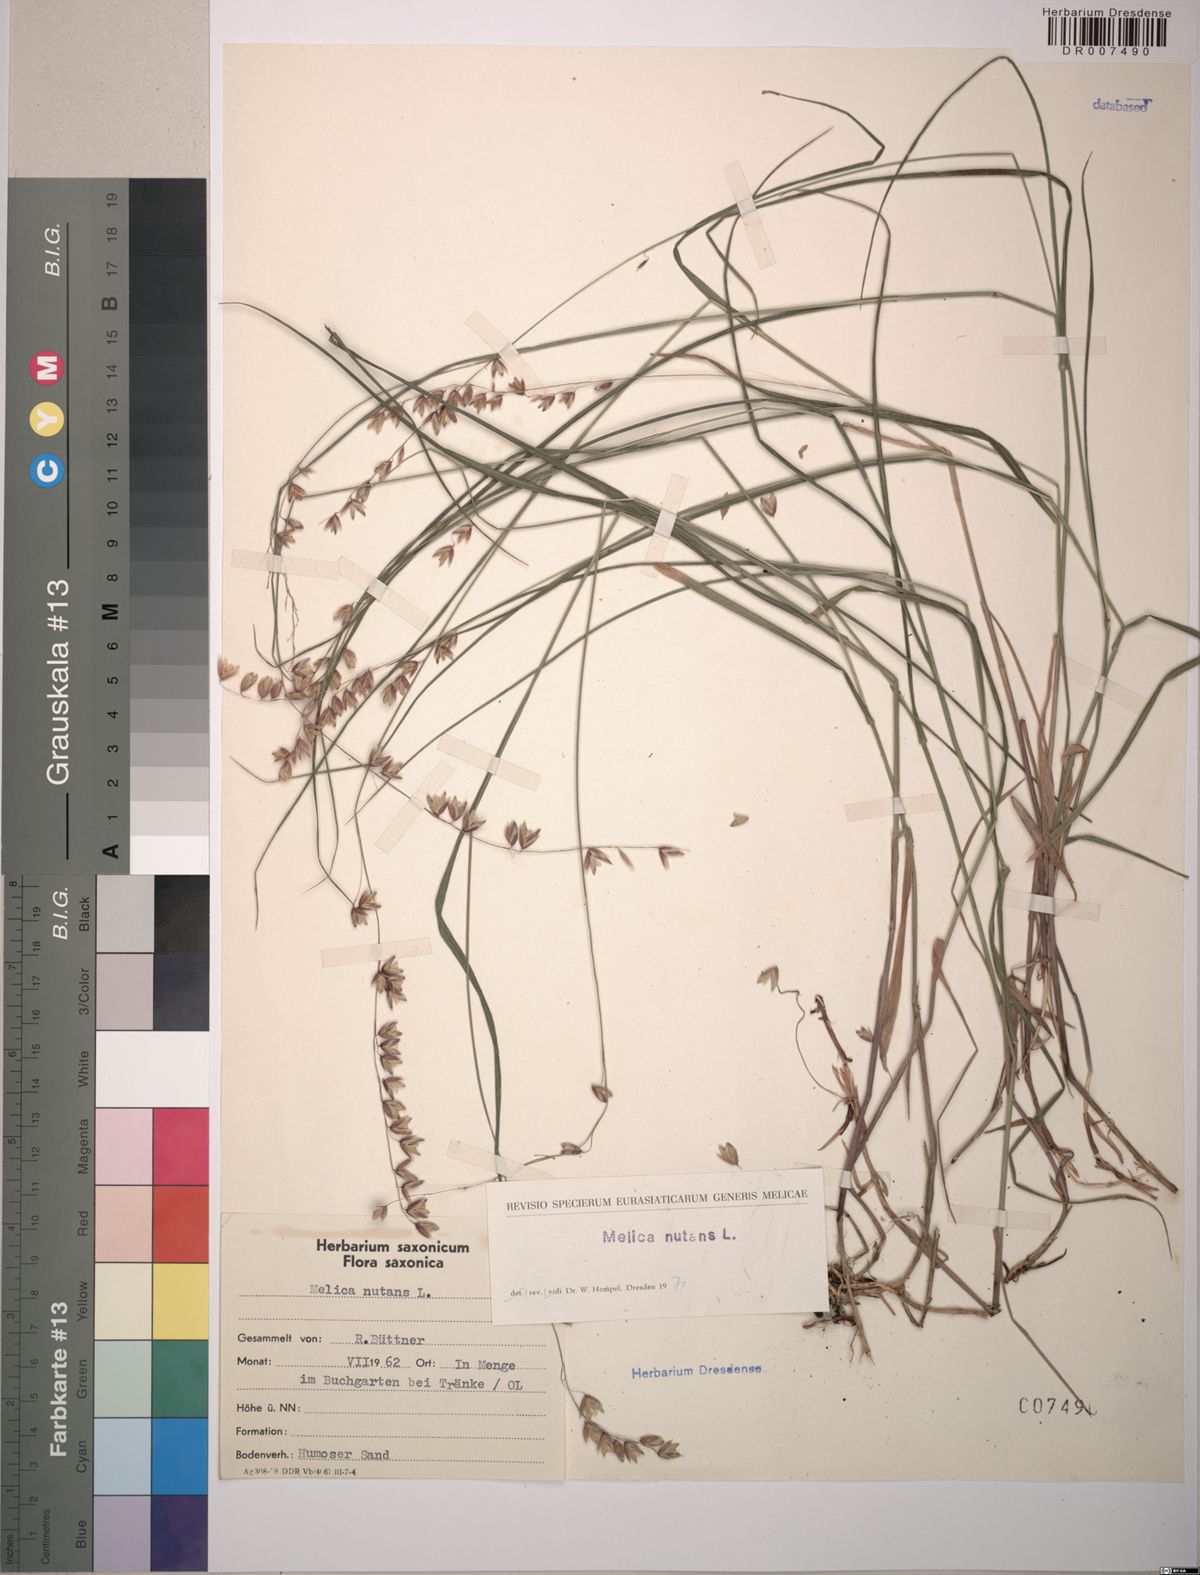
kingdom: Plantae
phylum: Tracheophyta
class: Liliopsida
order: Poales
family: Poaceae
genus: Melica
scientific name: Melica nutans
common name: Mountain melick
